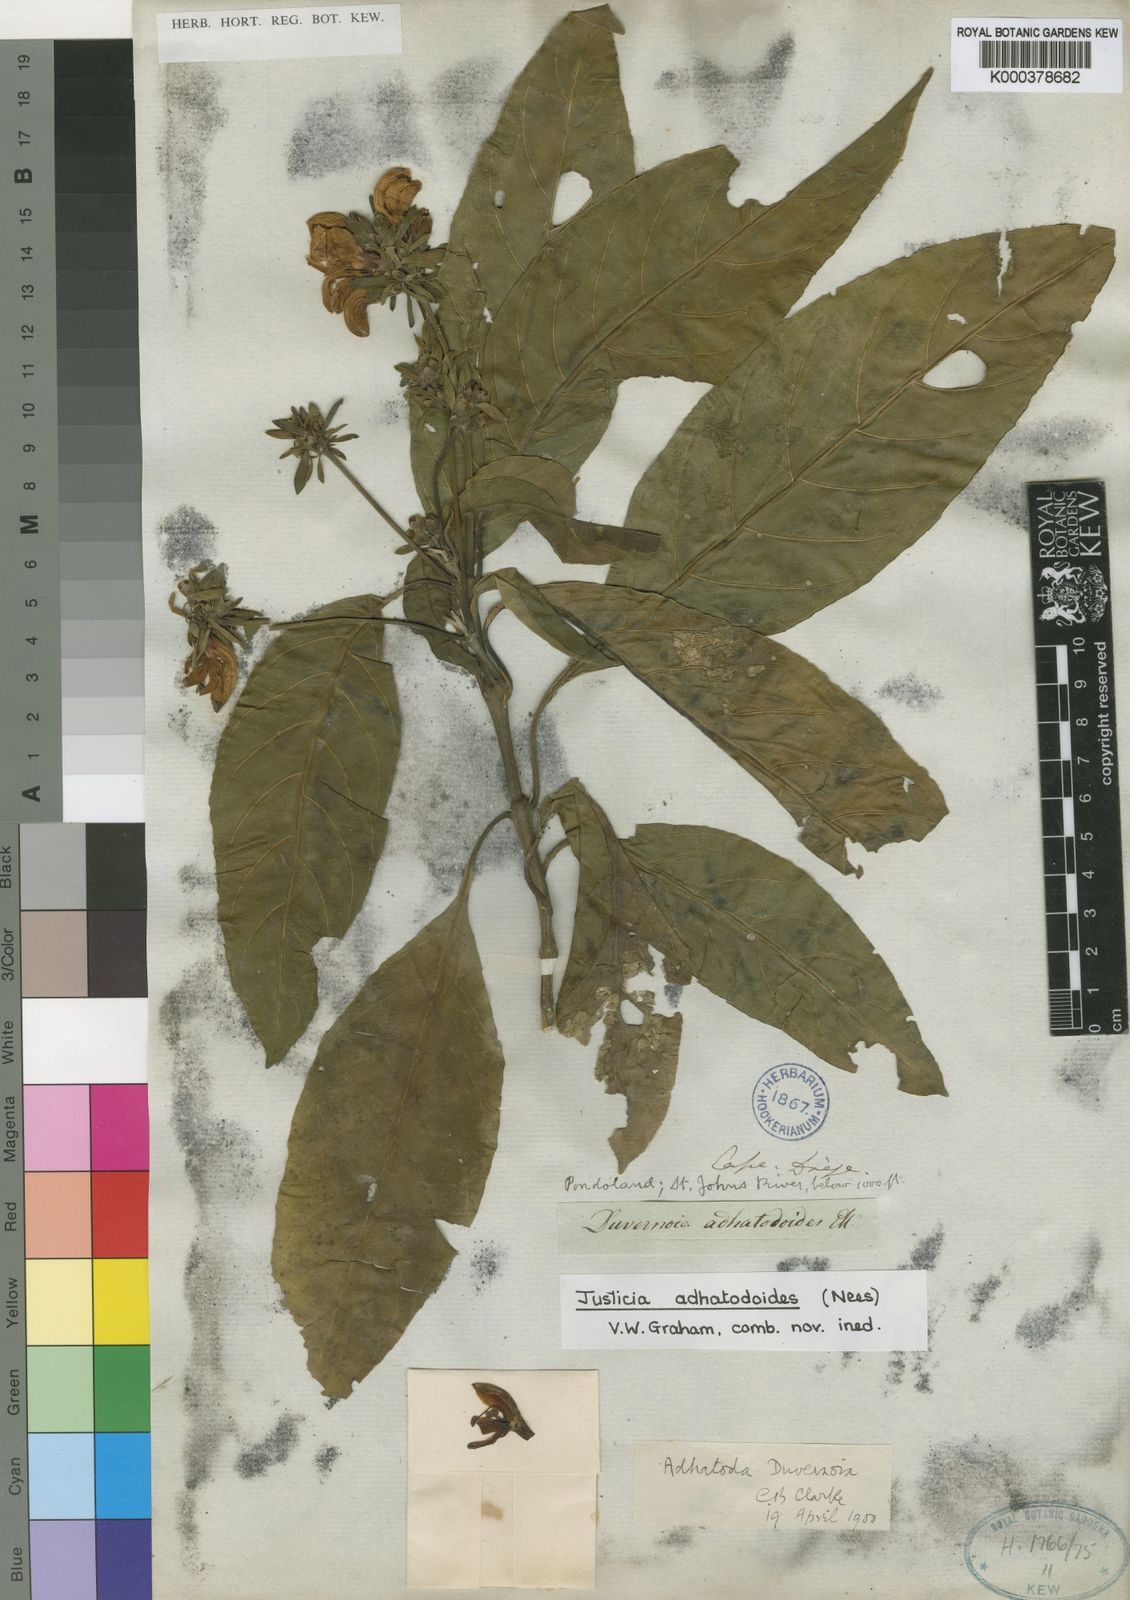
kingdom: Plantae
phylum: Tracheophyta
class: Magnoliopsida
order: Lamiales
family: Acanthaceae
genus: Justicia
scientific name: Justicia adhatodoides
